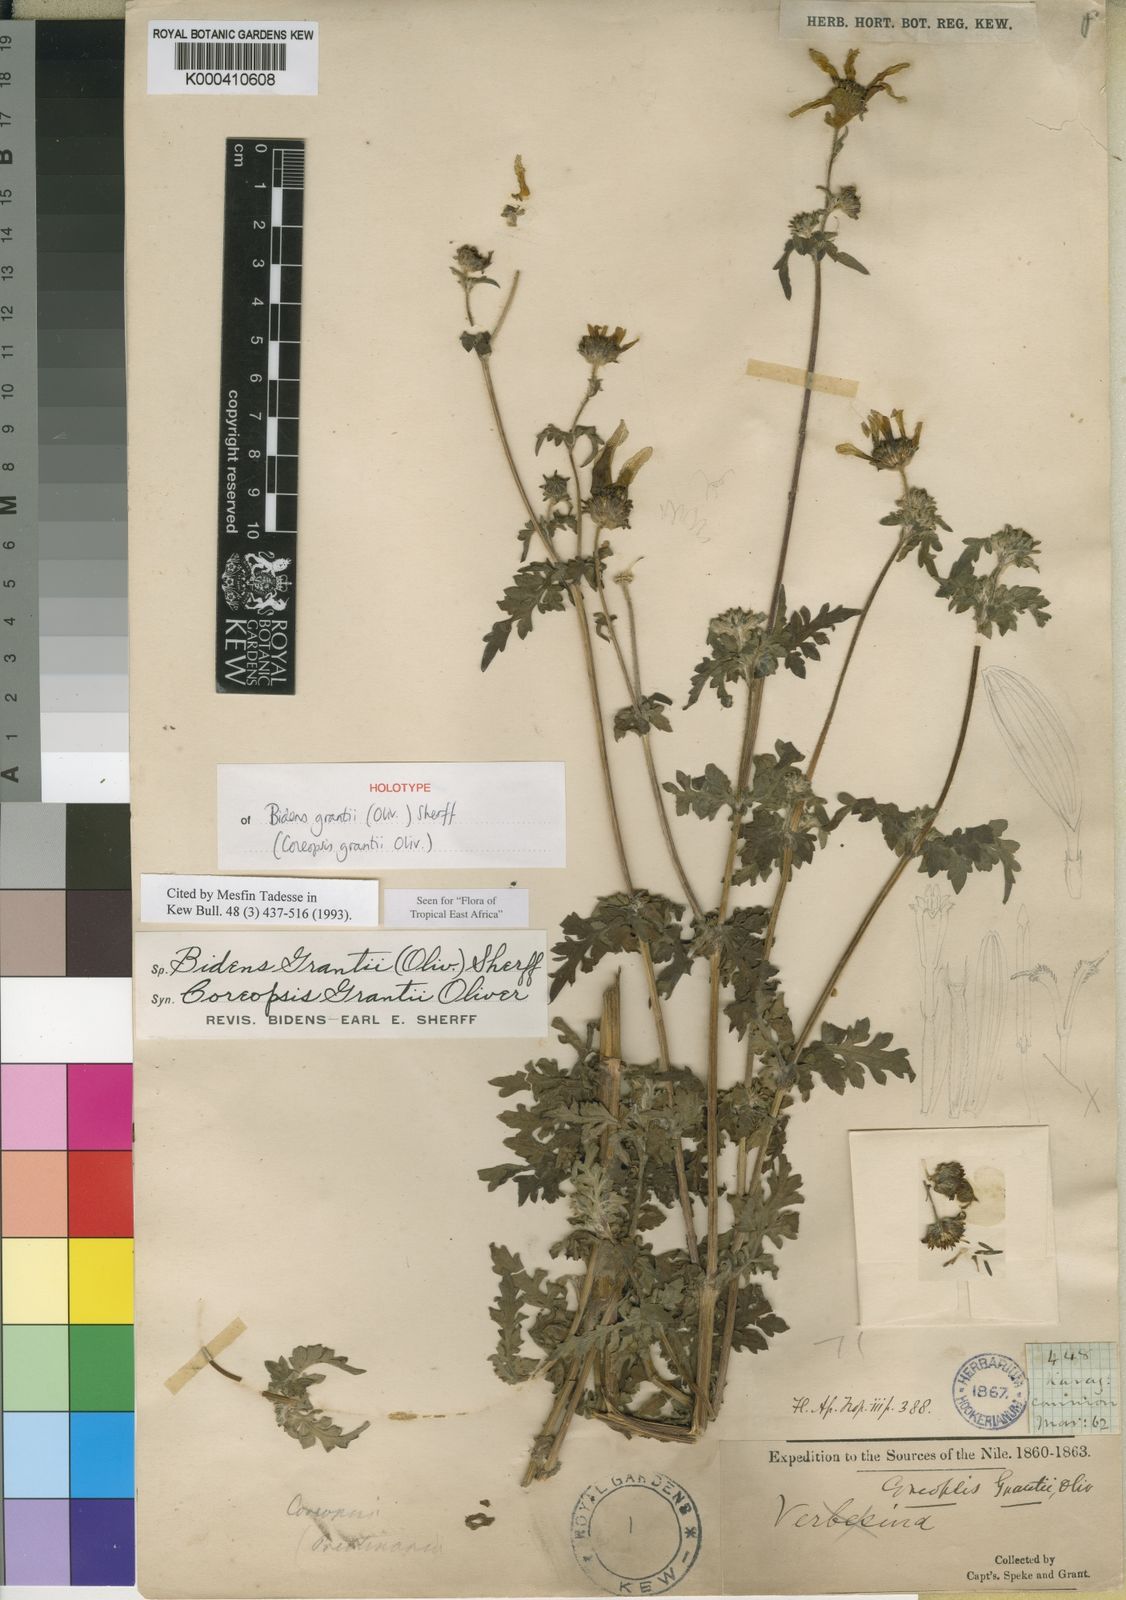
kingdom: Plantae
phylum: Tracheophyta
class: Magnoliopsida
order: Asterales
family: Asteraceae
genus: Bidens
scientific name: Bidens grantii
